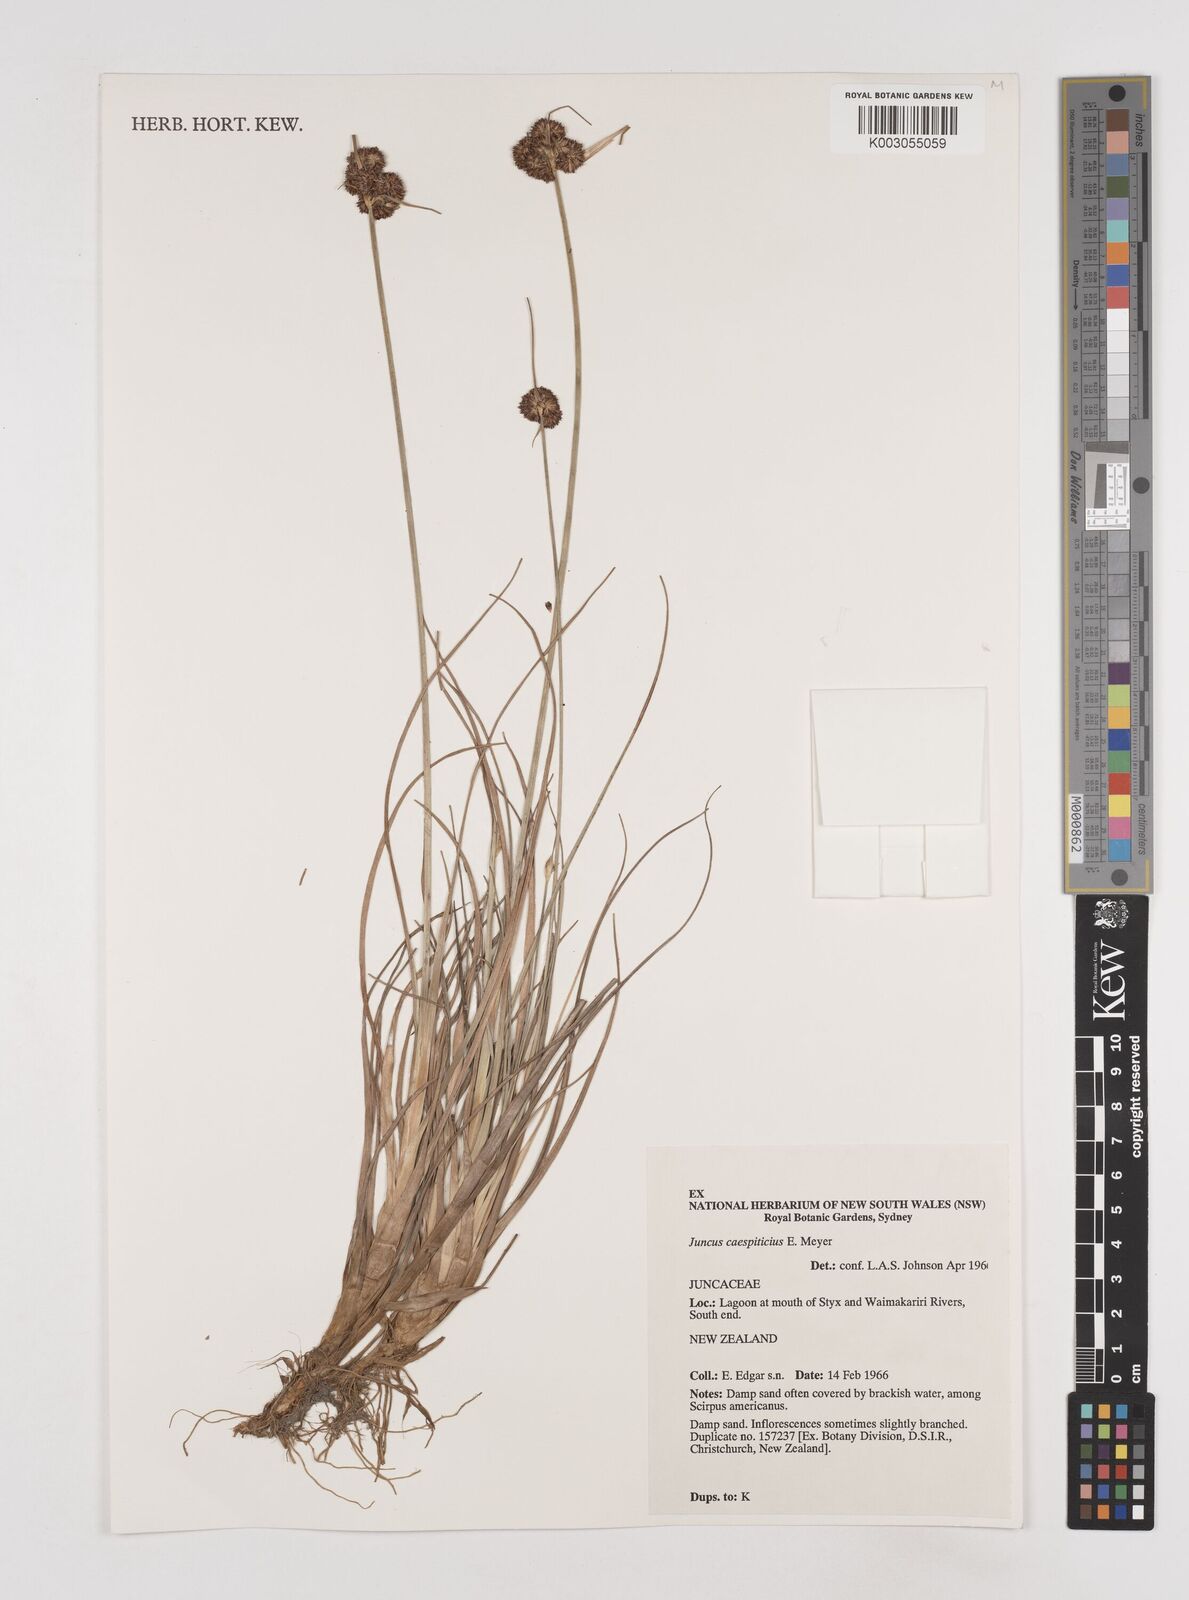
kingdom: Plantae
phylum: Tracheophyta
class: Liliopsida
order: Poales
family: Juncaceae
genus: Juncus
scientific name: Juncus caespiticius
